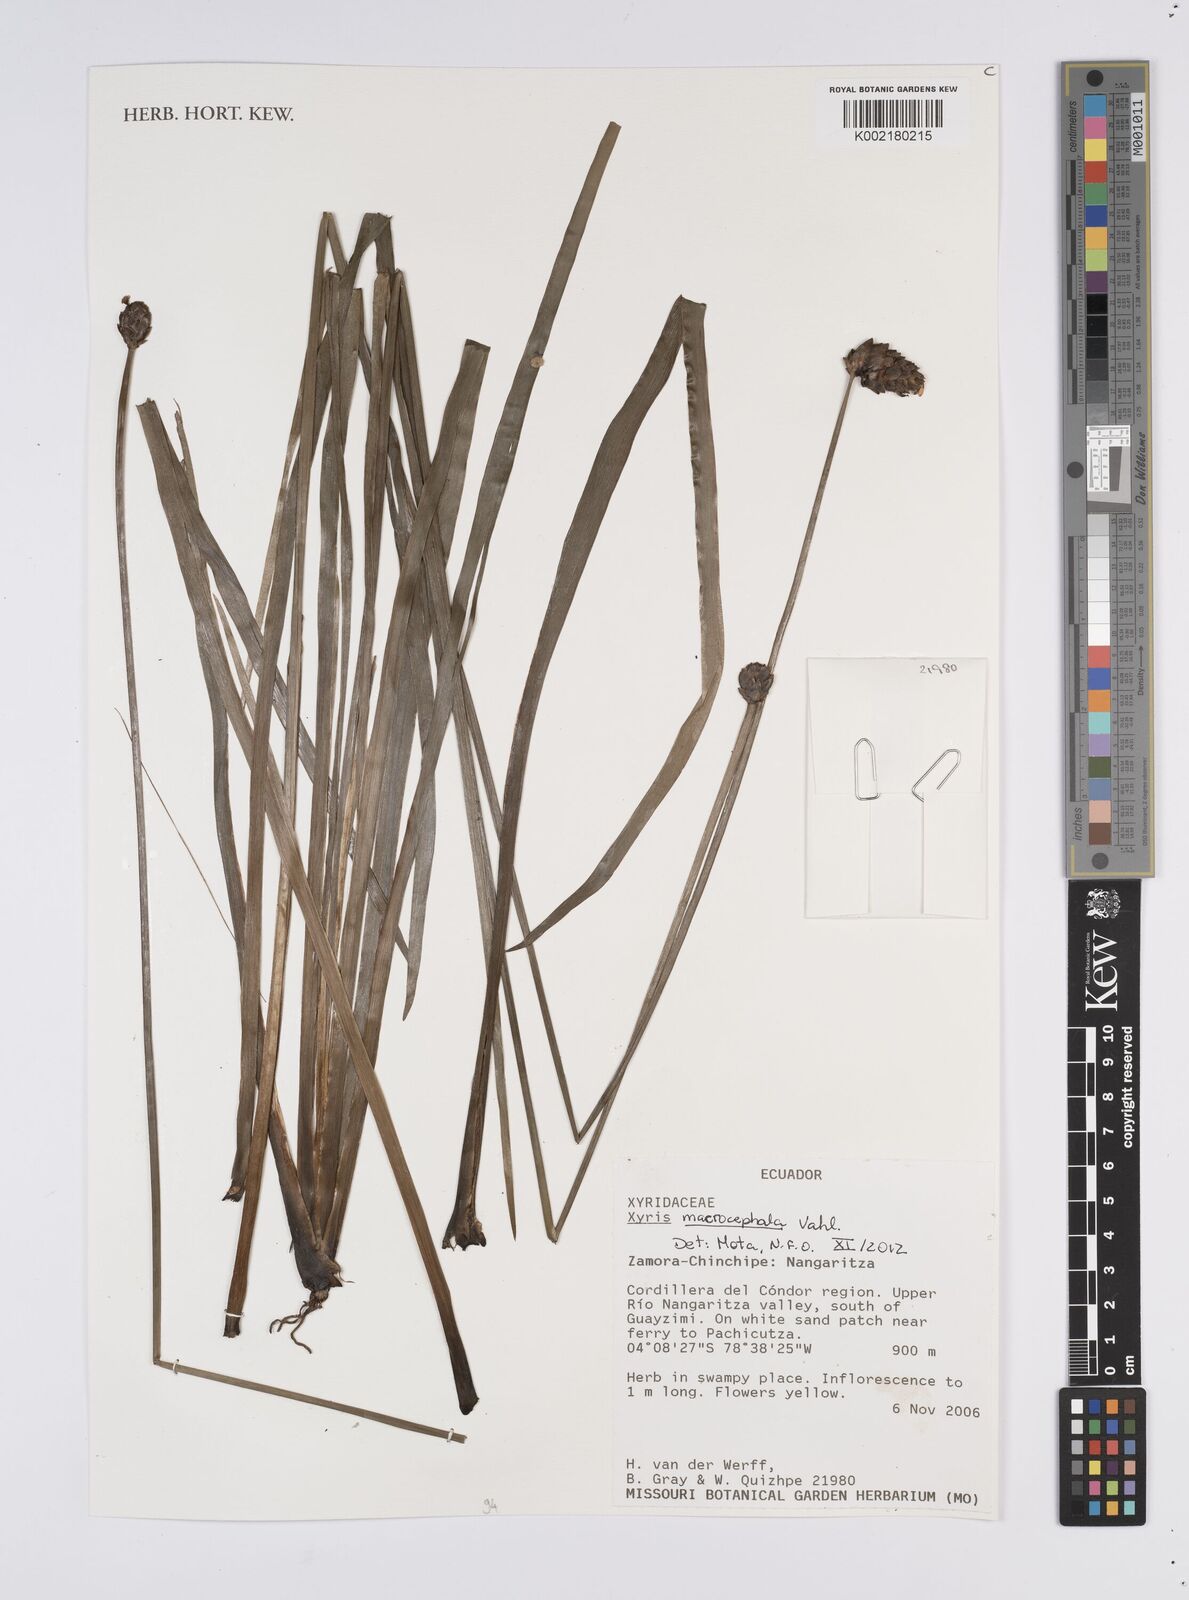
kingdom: Plantae
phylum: Tracheophyta
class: Liliopsida
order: Poales
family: Xyridaceae
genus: Xyris
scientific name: Xyris laxiflora
